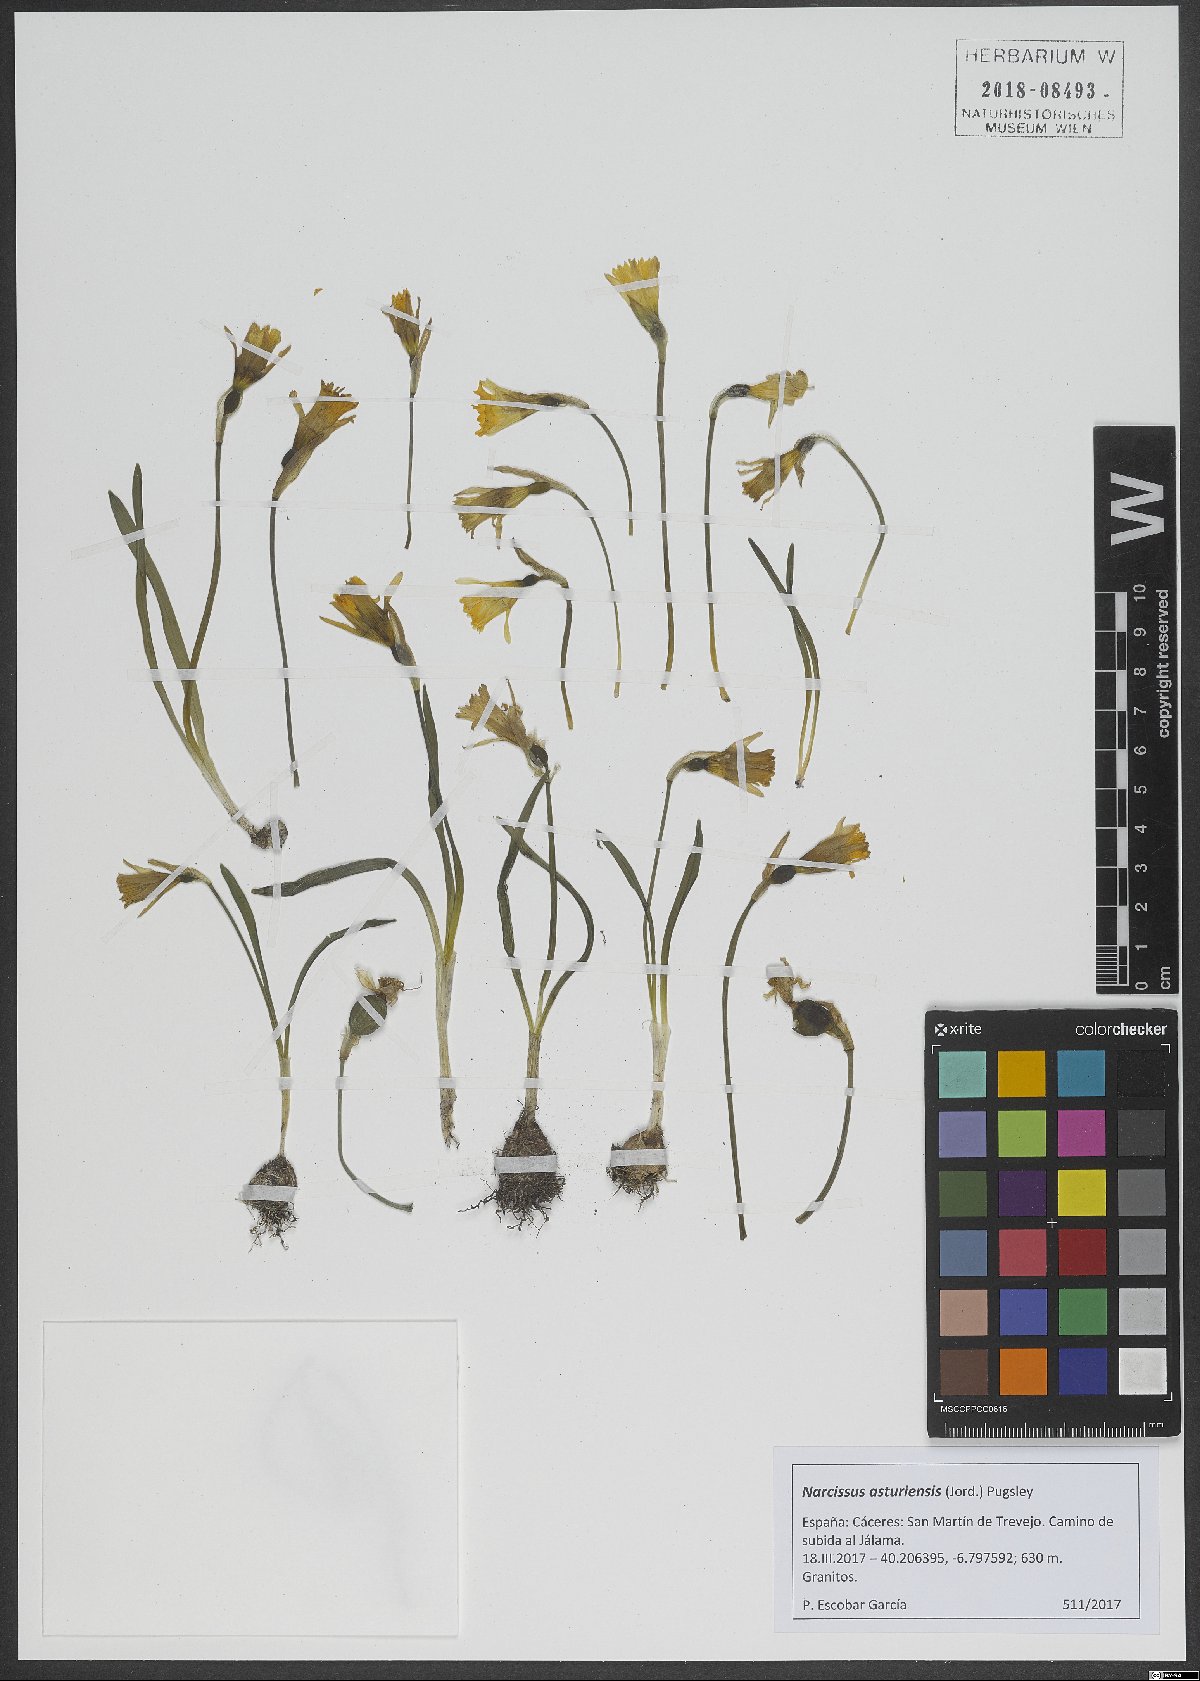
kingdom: Plantae
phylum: Tracheophyta
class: Liliopsida
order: Asparagales
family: Amaryllidaceae
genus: Narcissus
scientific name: Narcissus cuneiflorus
